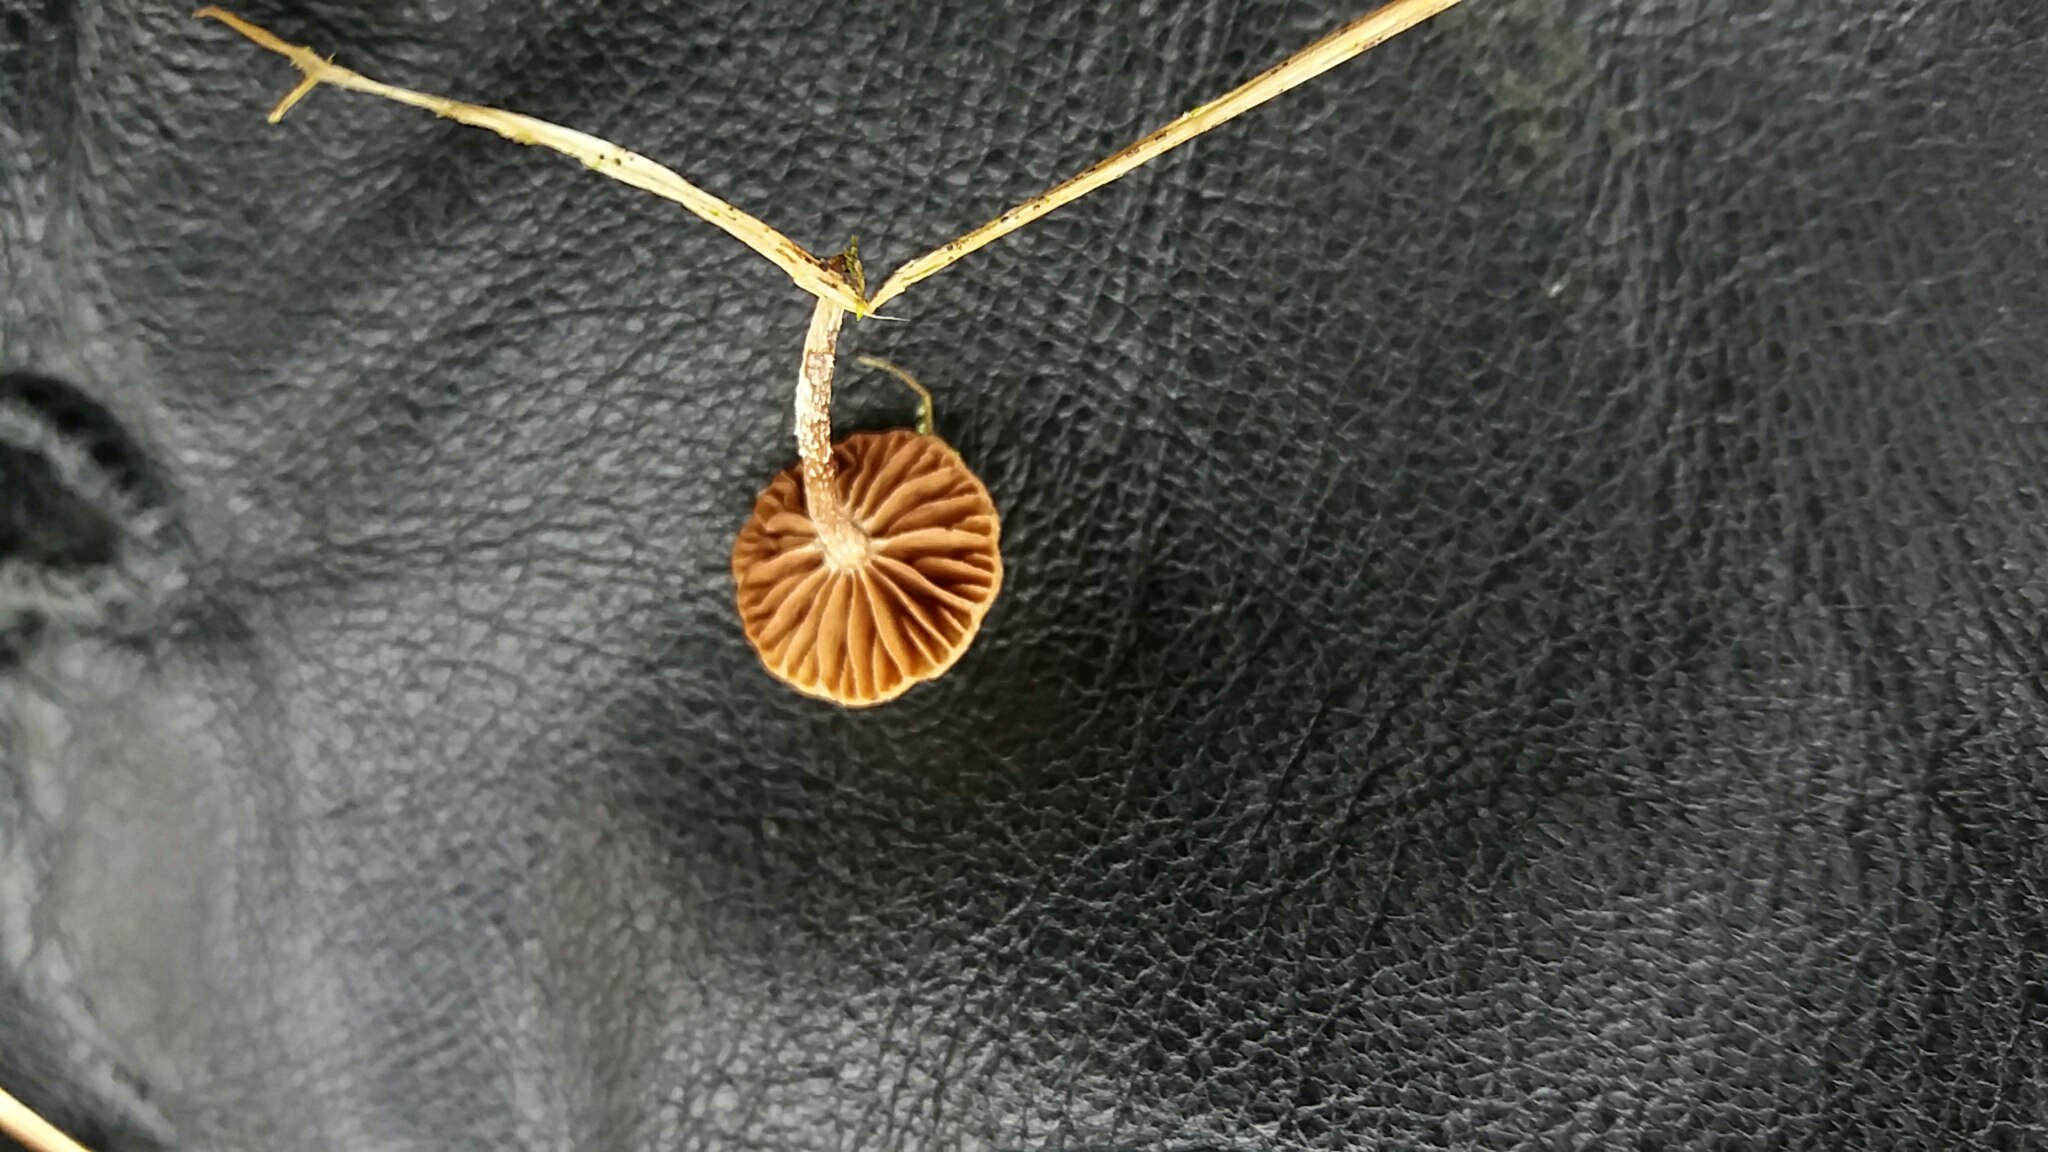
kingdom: Fungi
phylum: Basidiomycota
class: Agaricomycetes
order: Agaricales
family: Strophariaceae
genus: Deconica
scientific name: Deconica
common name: stråhat
